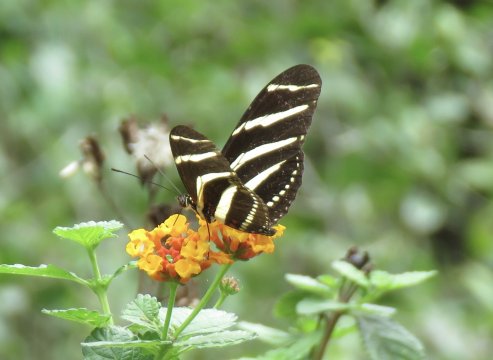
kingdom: Animalia
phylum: Arthropoda
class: Insecta
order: Lepidoptera
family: Nymphalidae
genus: Heliconius
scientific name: Heliconius charithonia
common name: Zebra Longwing
